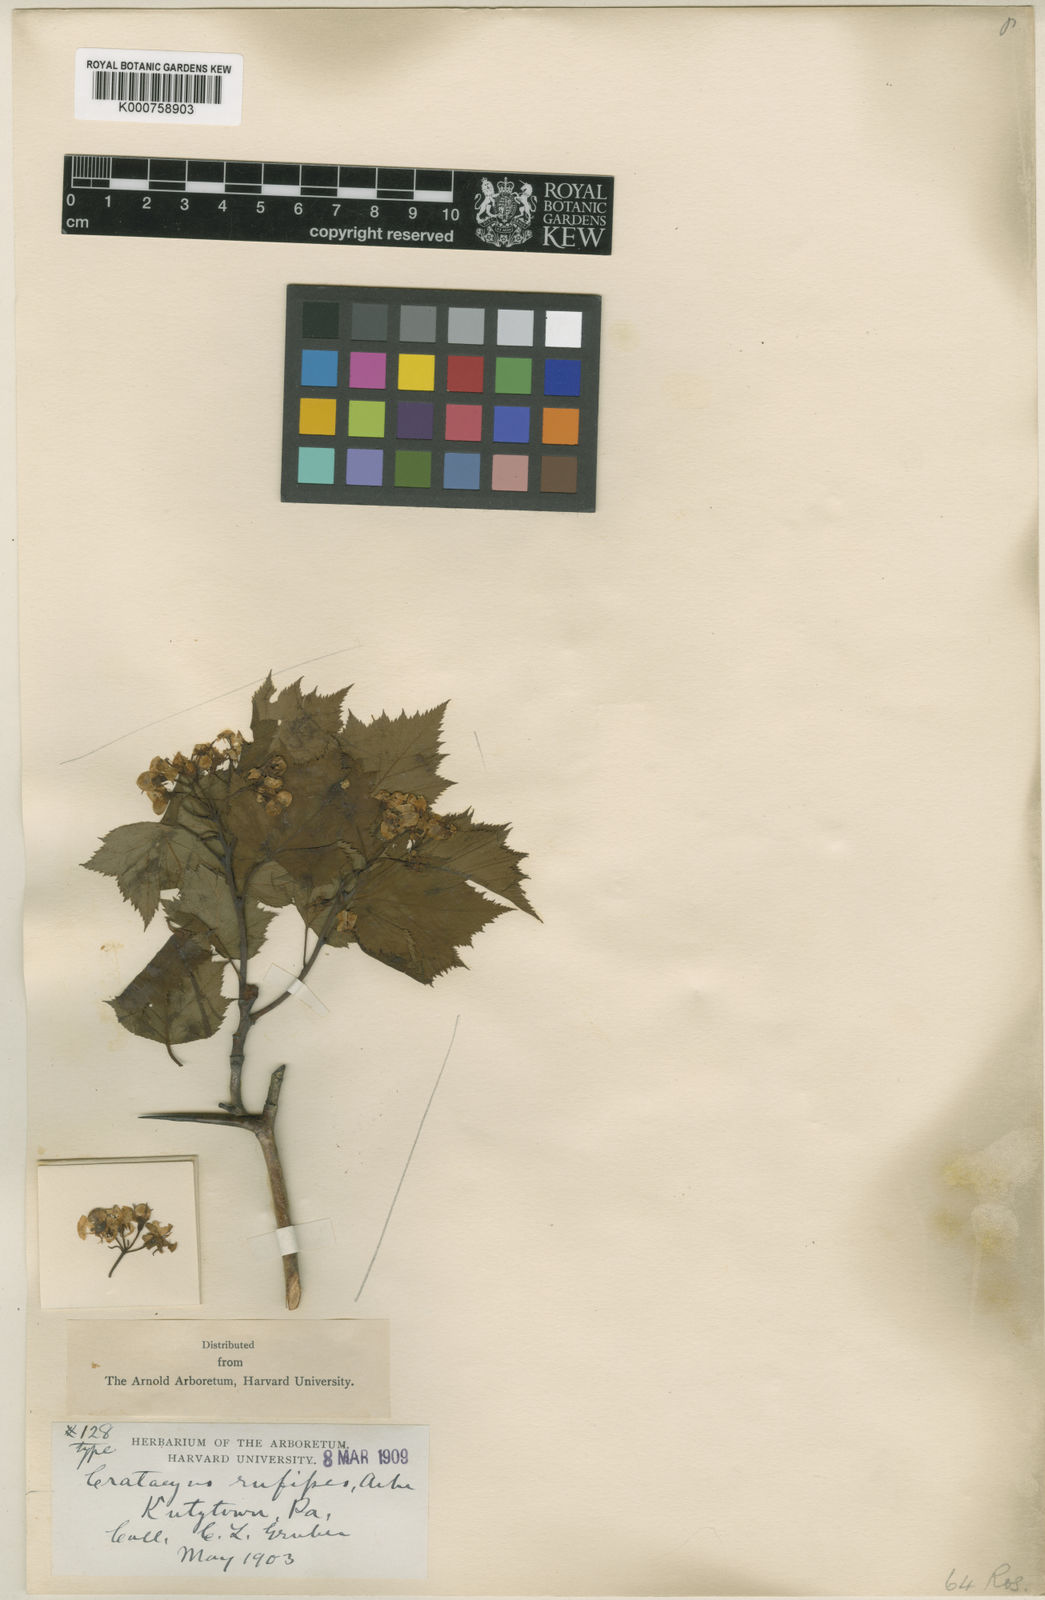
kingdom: Plantae
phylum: Tracheophyta
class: Magnoliopsida
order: Rosales
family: Rosaceae
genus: Crataegus
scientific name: Crataegus rufipes
